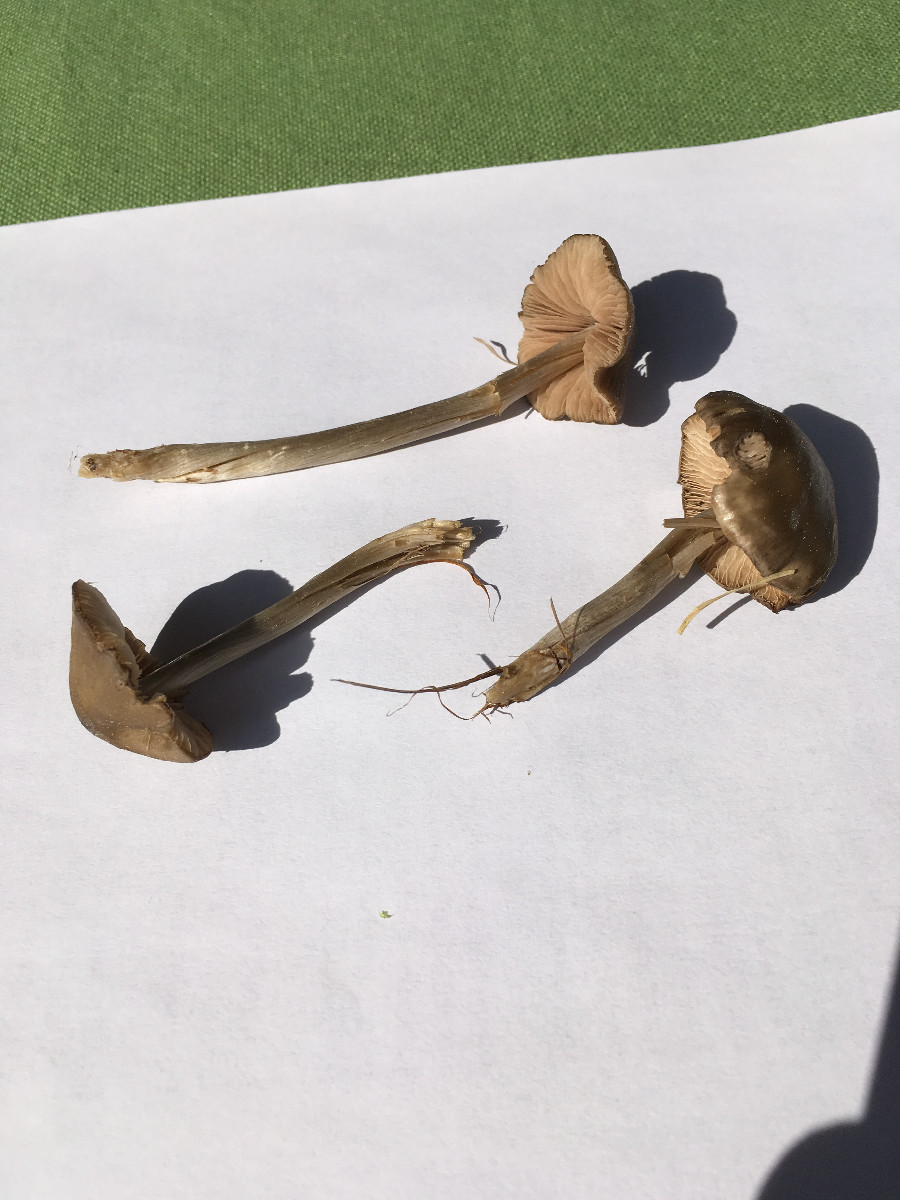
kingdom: Fungi
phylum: Basidiomycota
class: Agaricomycetes
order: Agaricales
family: Entolomataceae
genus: Entoloma
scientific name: Entoloma
